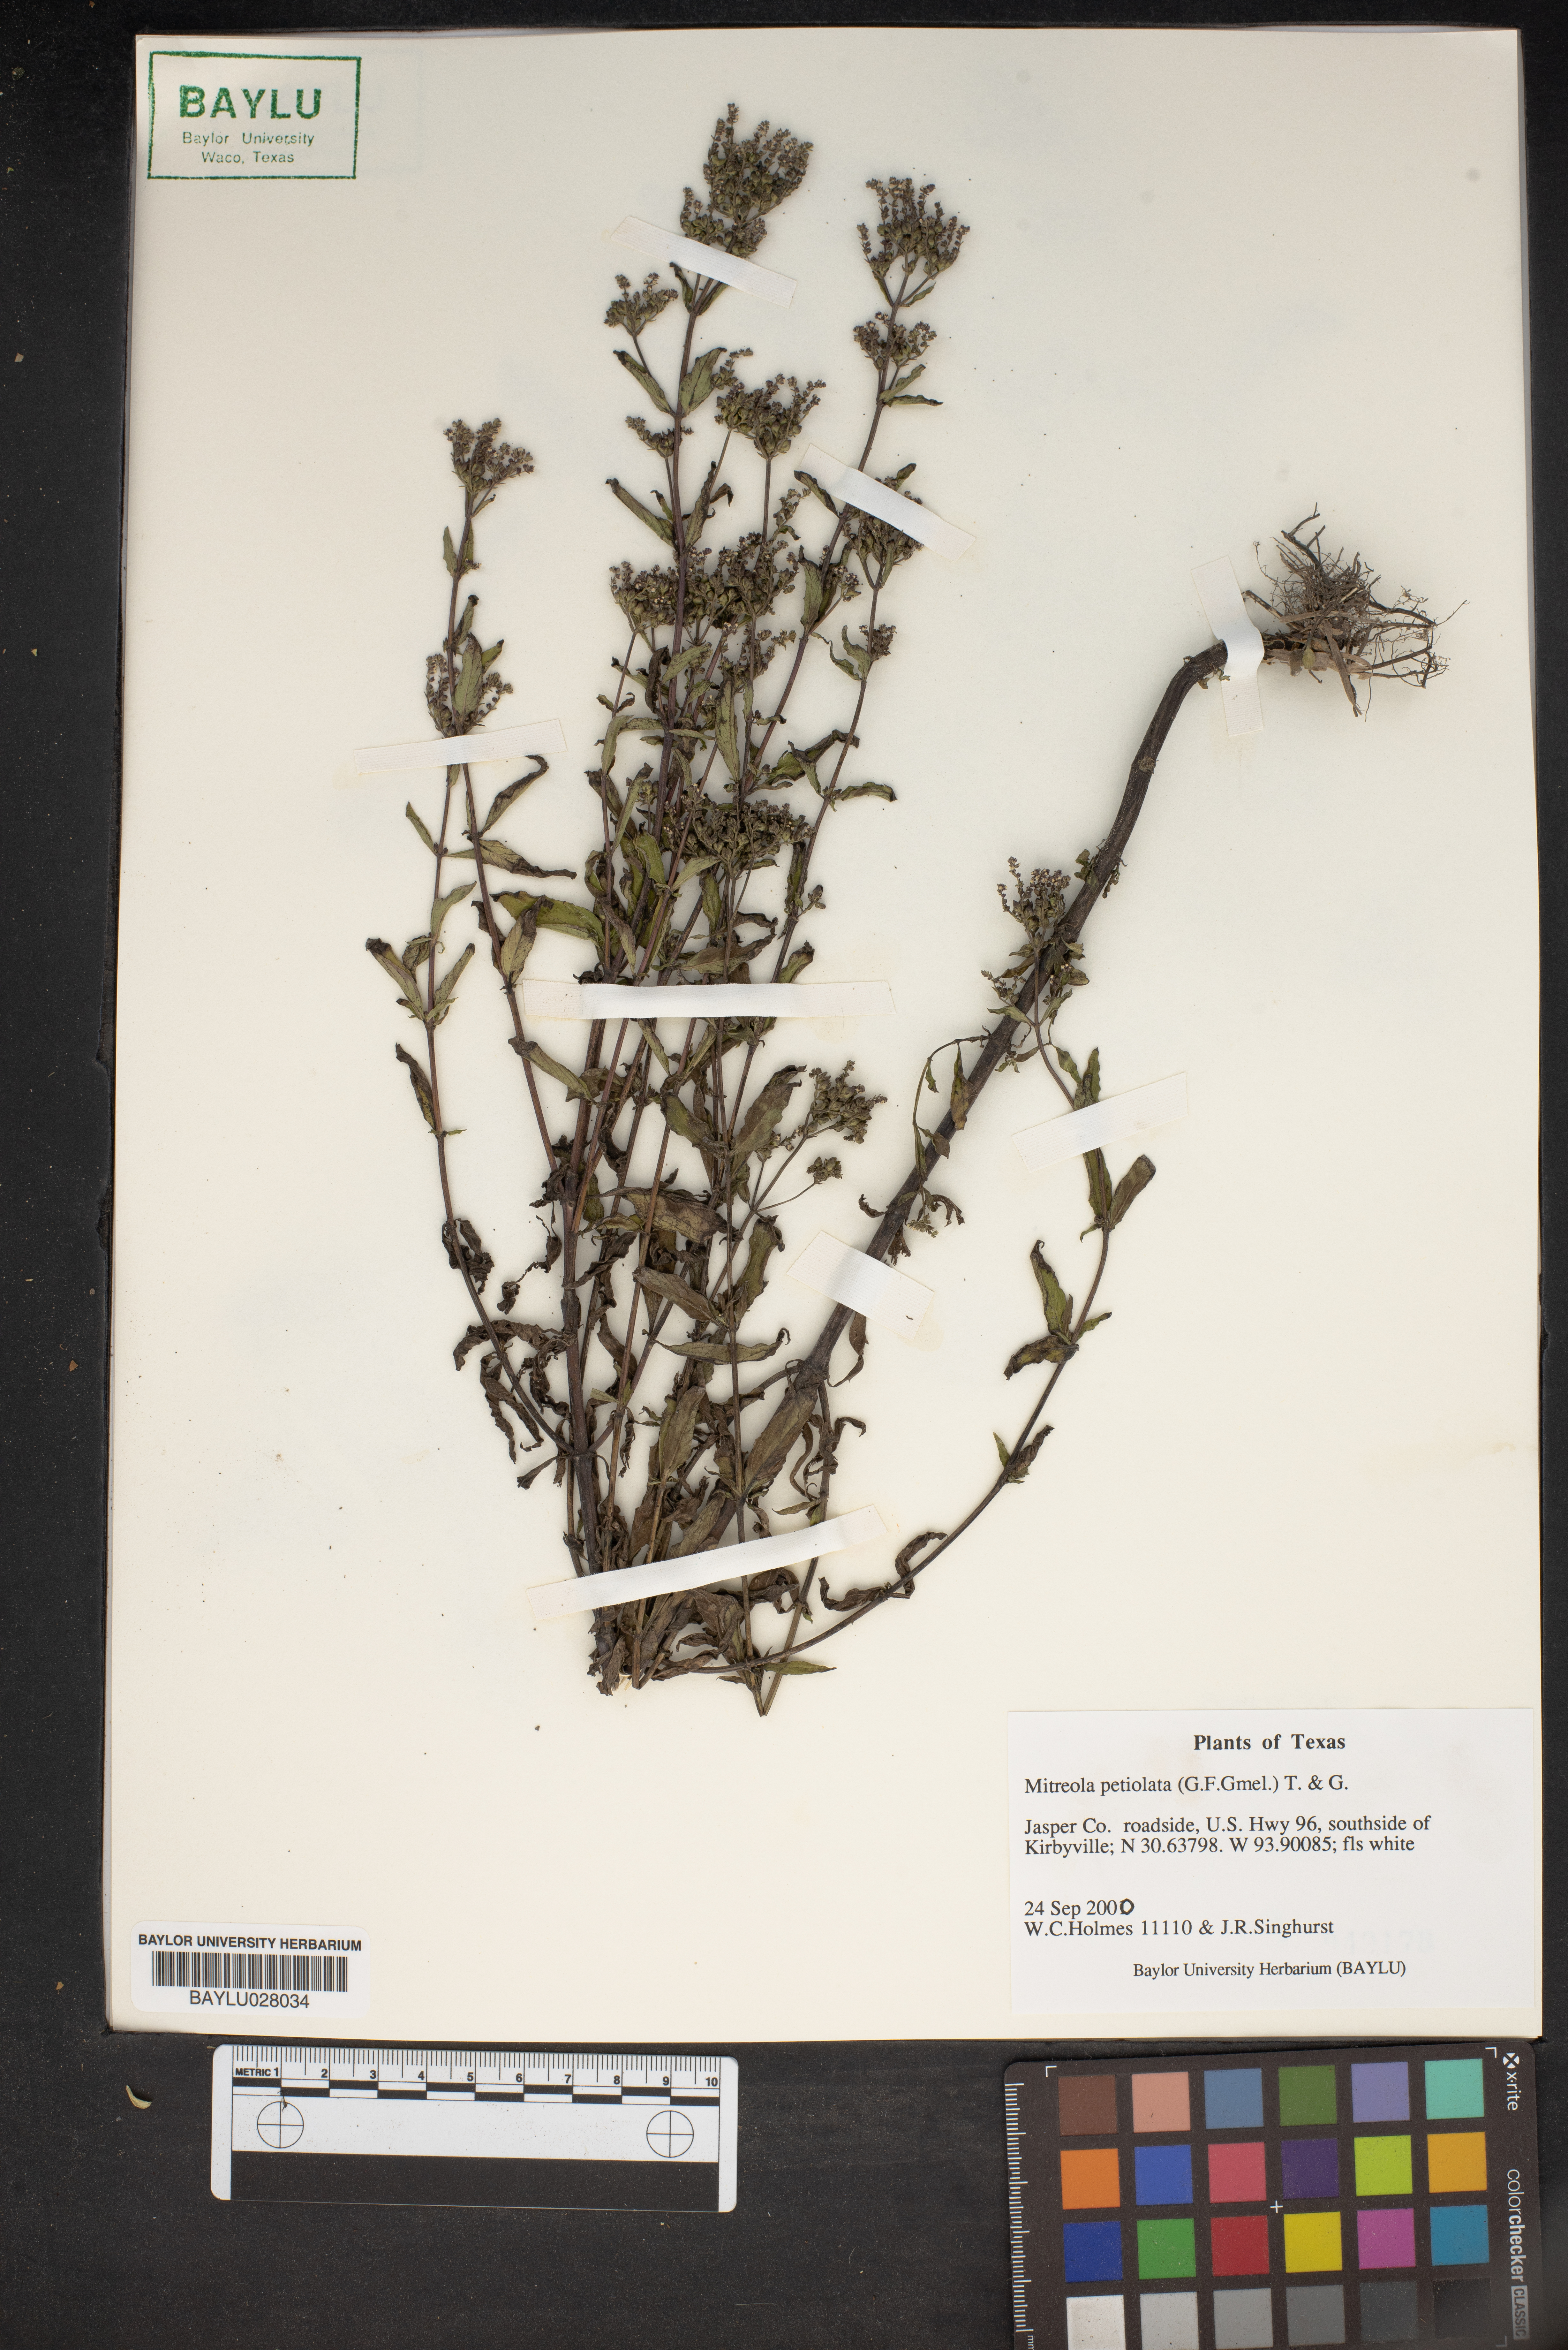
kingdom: Plantae
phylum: Tracheophyta
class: Magnoliopsida
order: Gentianales
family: Loganiaceae
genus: Mitreola
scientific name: Mitreola petiolata
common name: Lax hornpod
